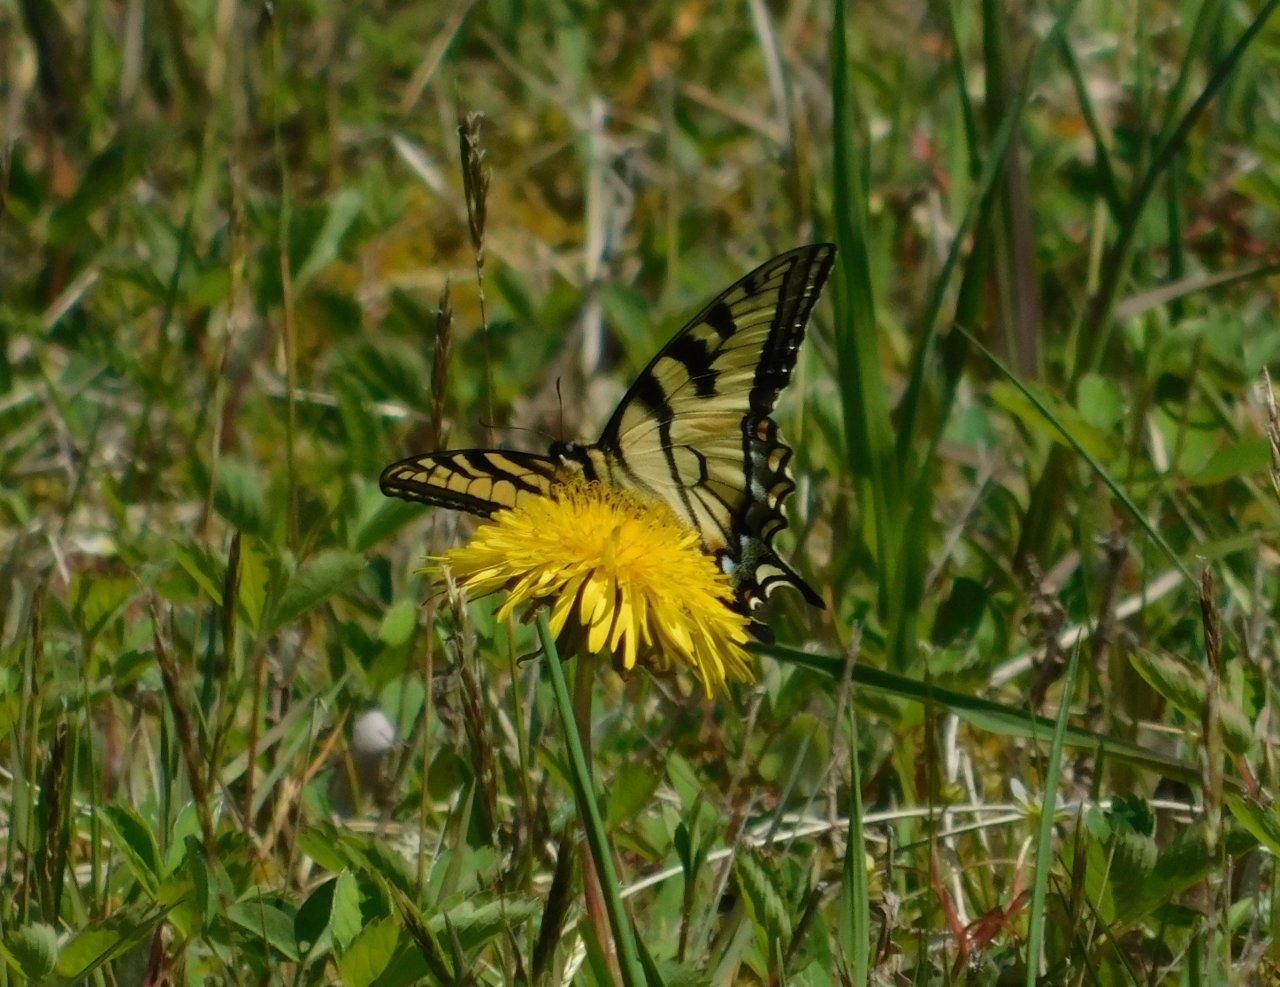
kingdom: Animalia
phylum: Arthropoda
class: Insecta
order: Lepidoptera
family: Papilionidae
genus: Pterourus
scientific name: Pterourus canadensis
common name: Canadian Tiger Swallowtail
